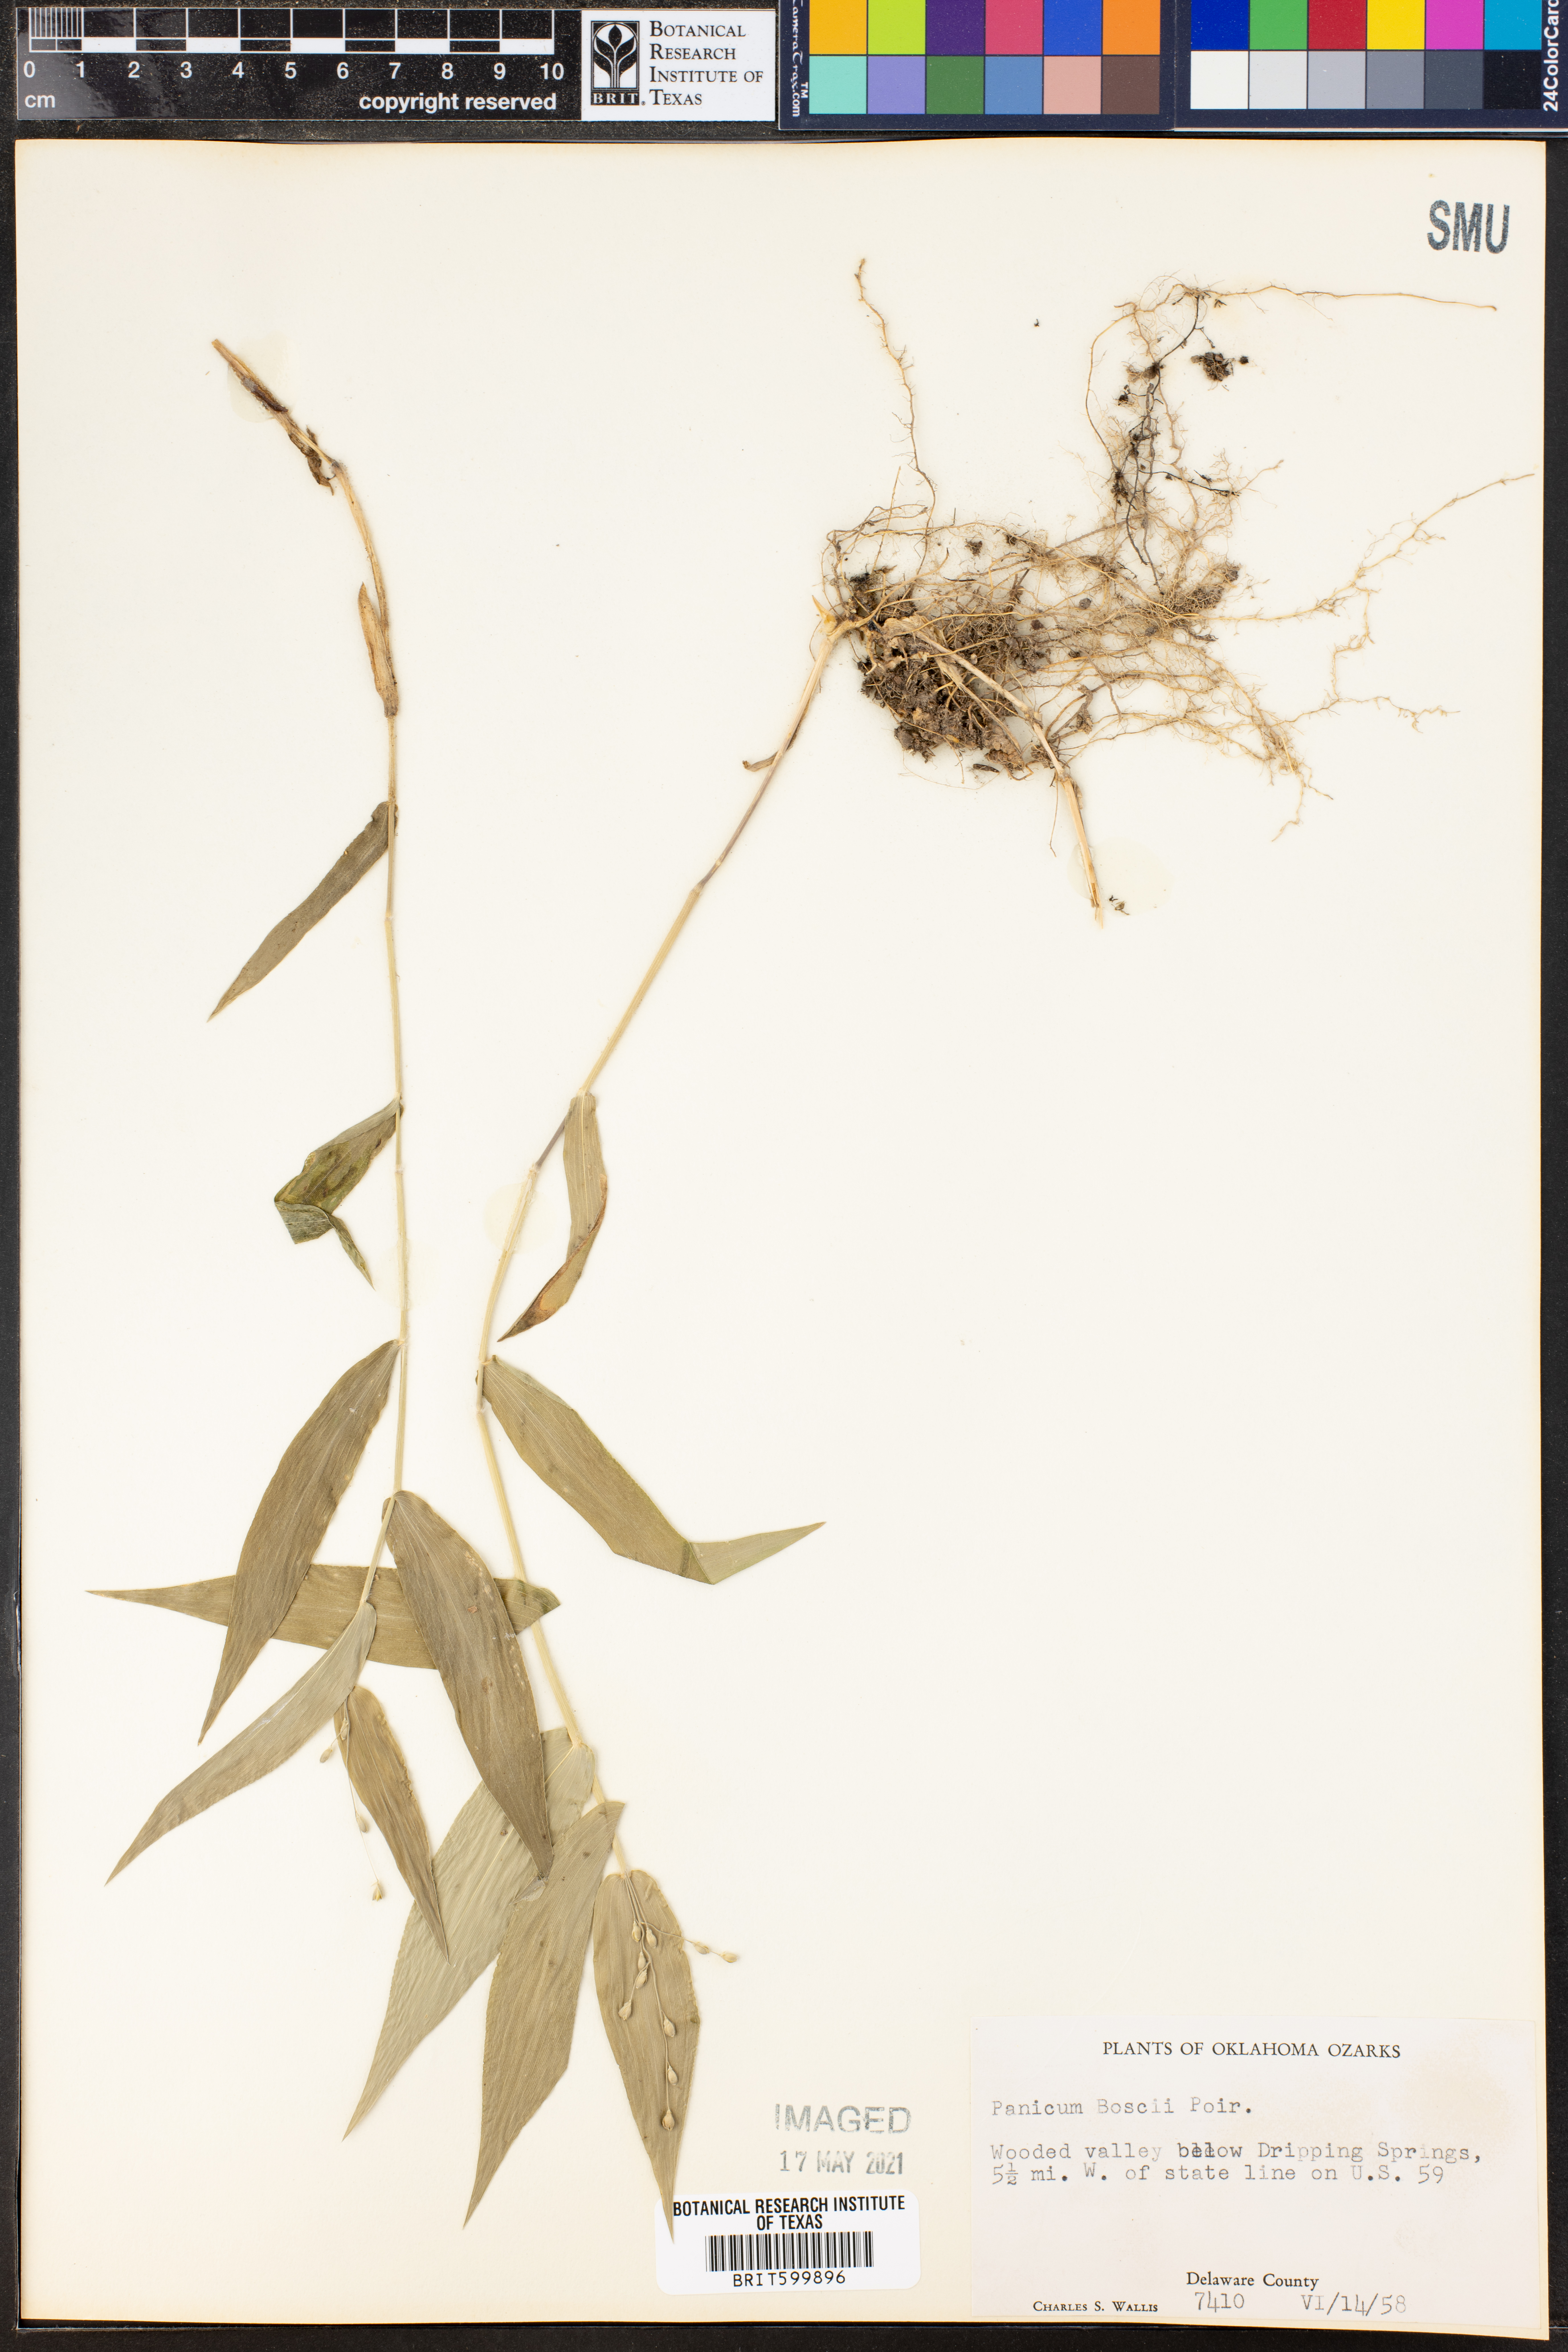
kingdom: Plantae
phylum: Tracheophyta
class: Liliopsida
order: Poales
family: Poaceae
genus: Dichanthelium
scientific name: Dichanthelium boscii
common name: Bosc's panic grass
